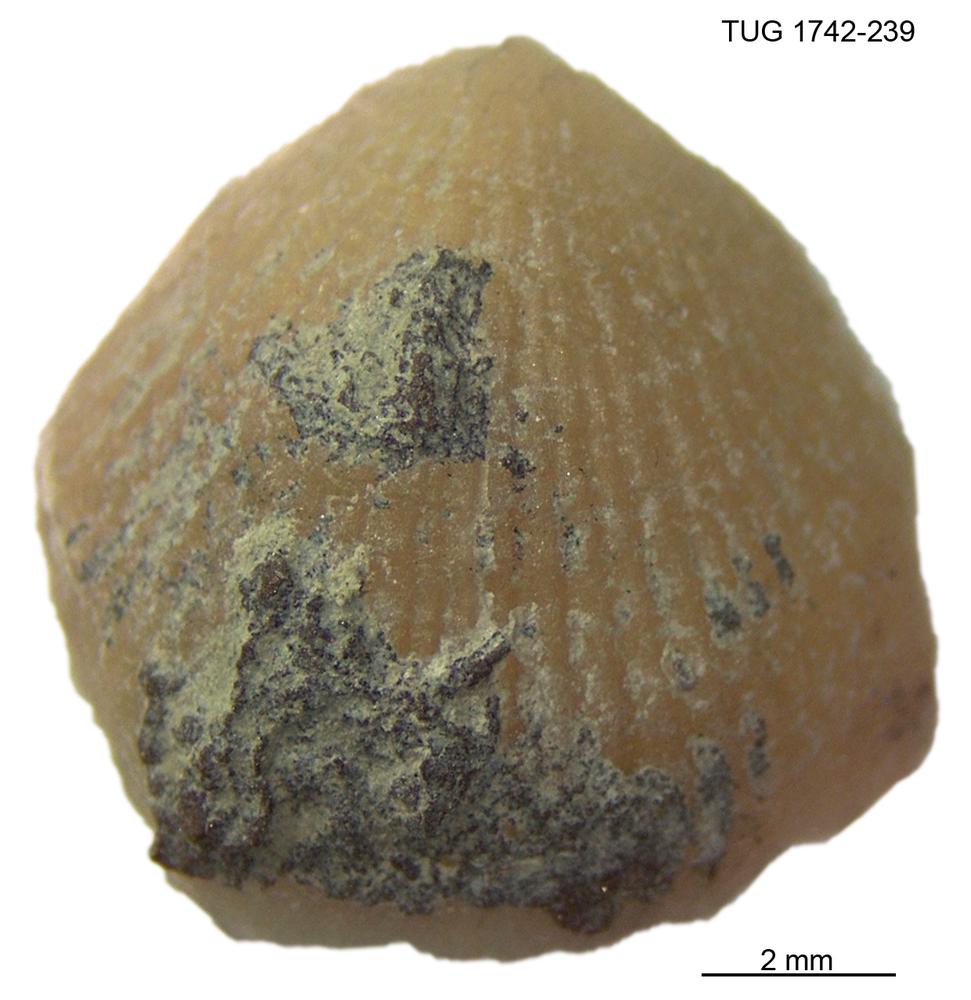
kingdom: Animalia
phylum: Brachiopoda
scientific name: Brachiopoda
